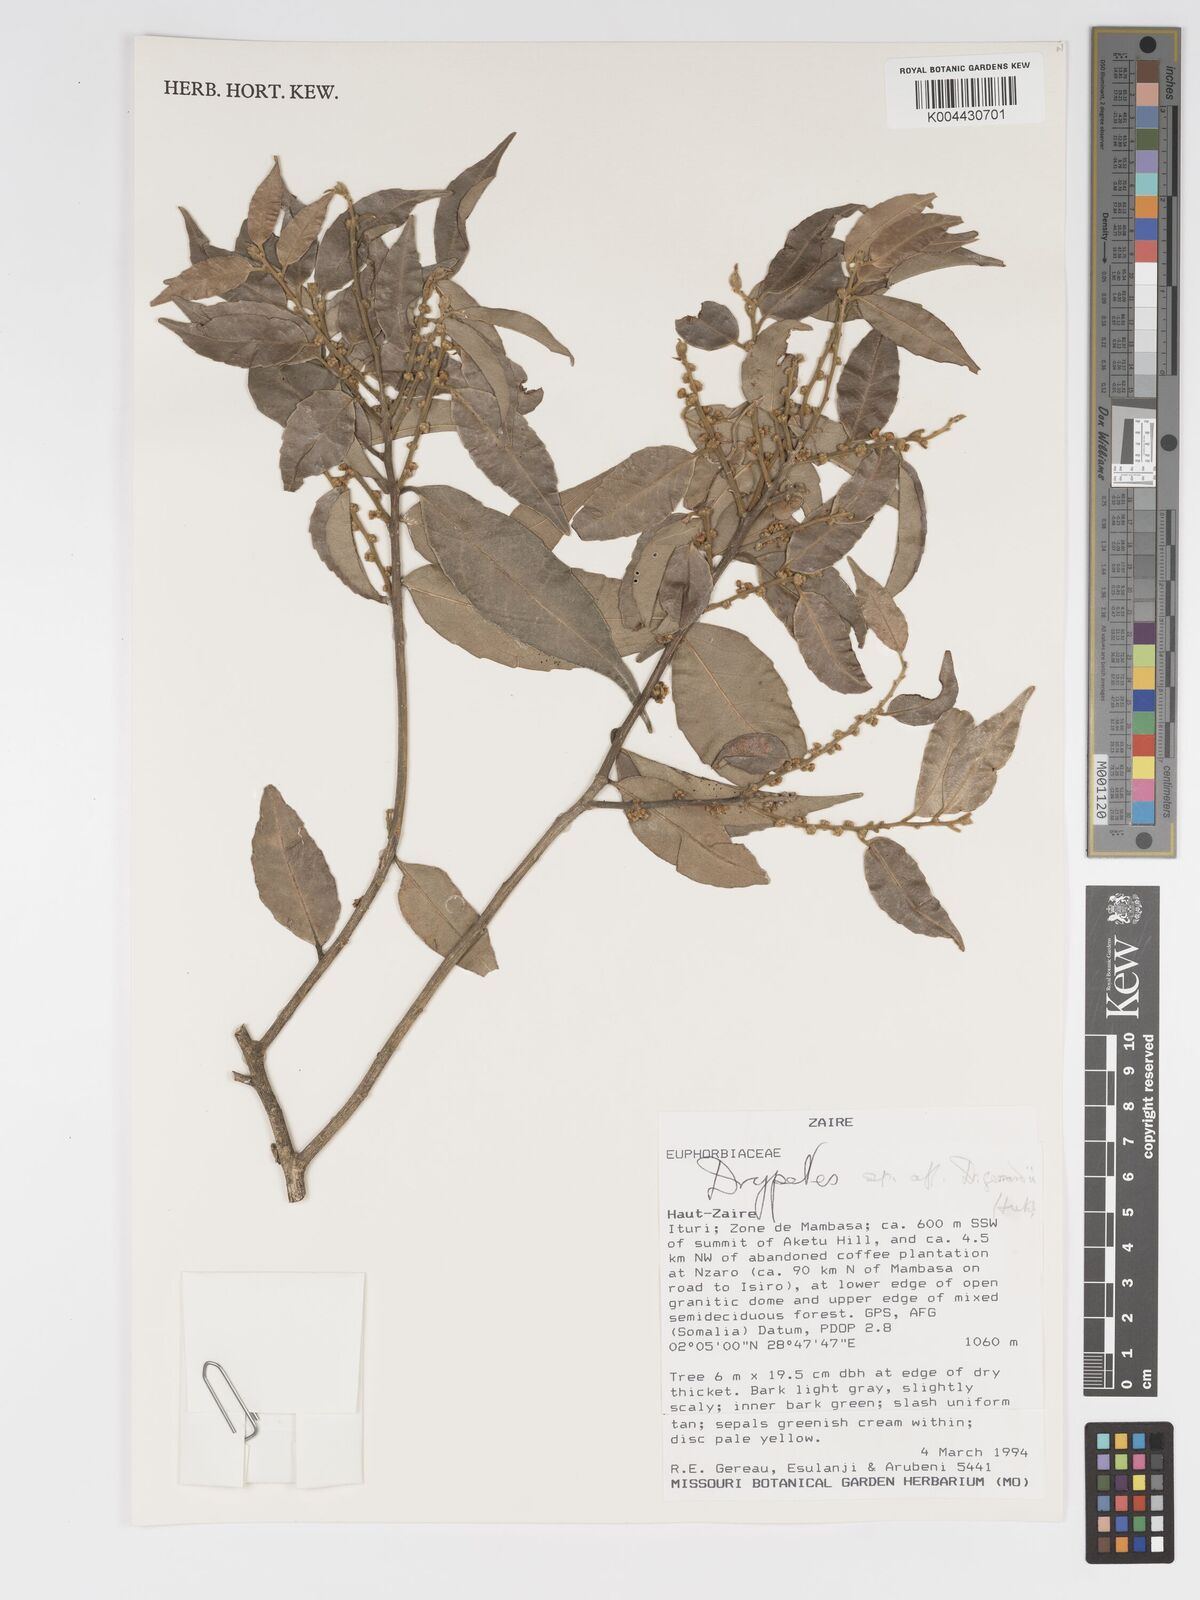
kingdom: Plantae
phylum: Tracheophyta
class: Magnoliopsida
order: Malpighiales
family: Putranjivaceae
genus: Drypetes
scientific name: Drypetes gerrardii
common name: Forest ironplum
